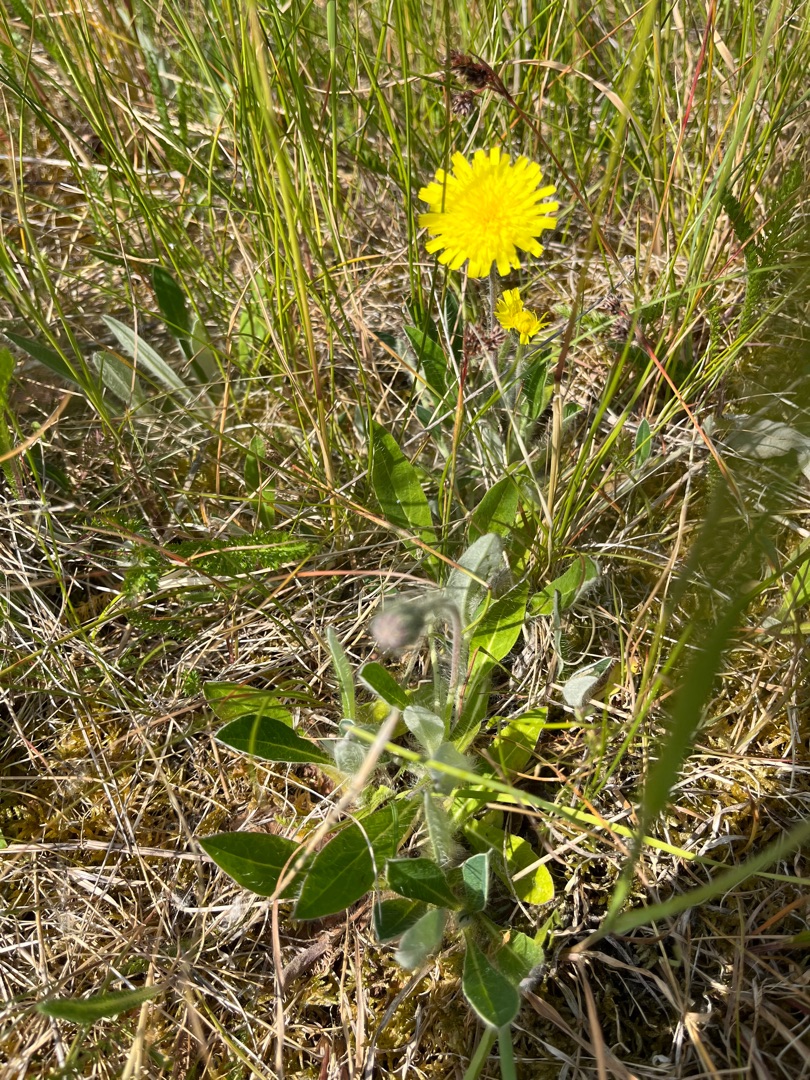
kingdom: Plantae
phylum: Tracheophyta
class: Magnoliopsida
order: Asterales
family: Asteraceae
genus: Pilosella
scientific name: Pilosella officinarum
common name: Håret høgeurt
